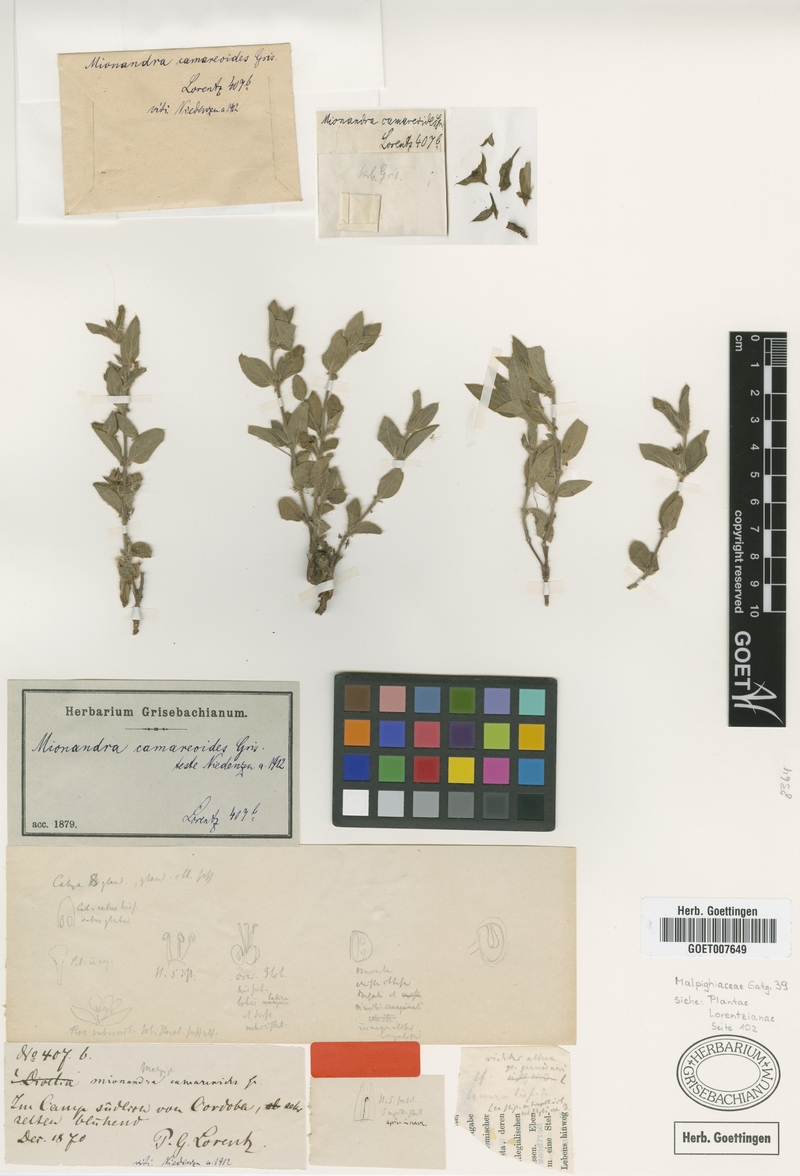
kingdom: Plantae
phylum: Tracheophyta
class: Magnoliopsida
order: Malpighiales
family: Malpighiaceae
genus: Mionandra
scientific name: Mionandra camareoides
